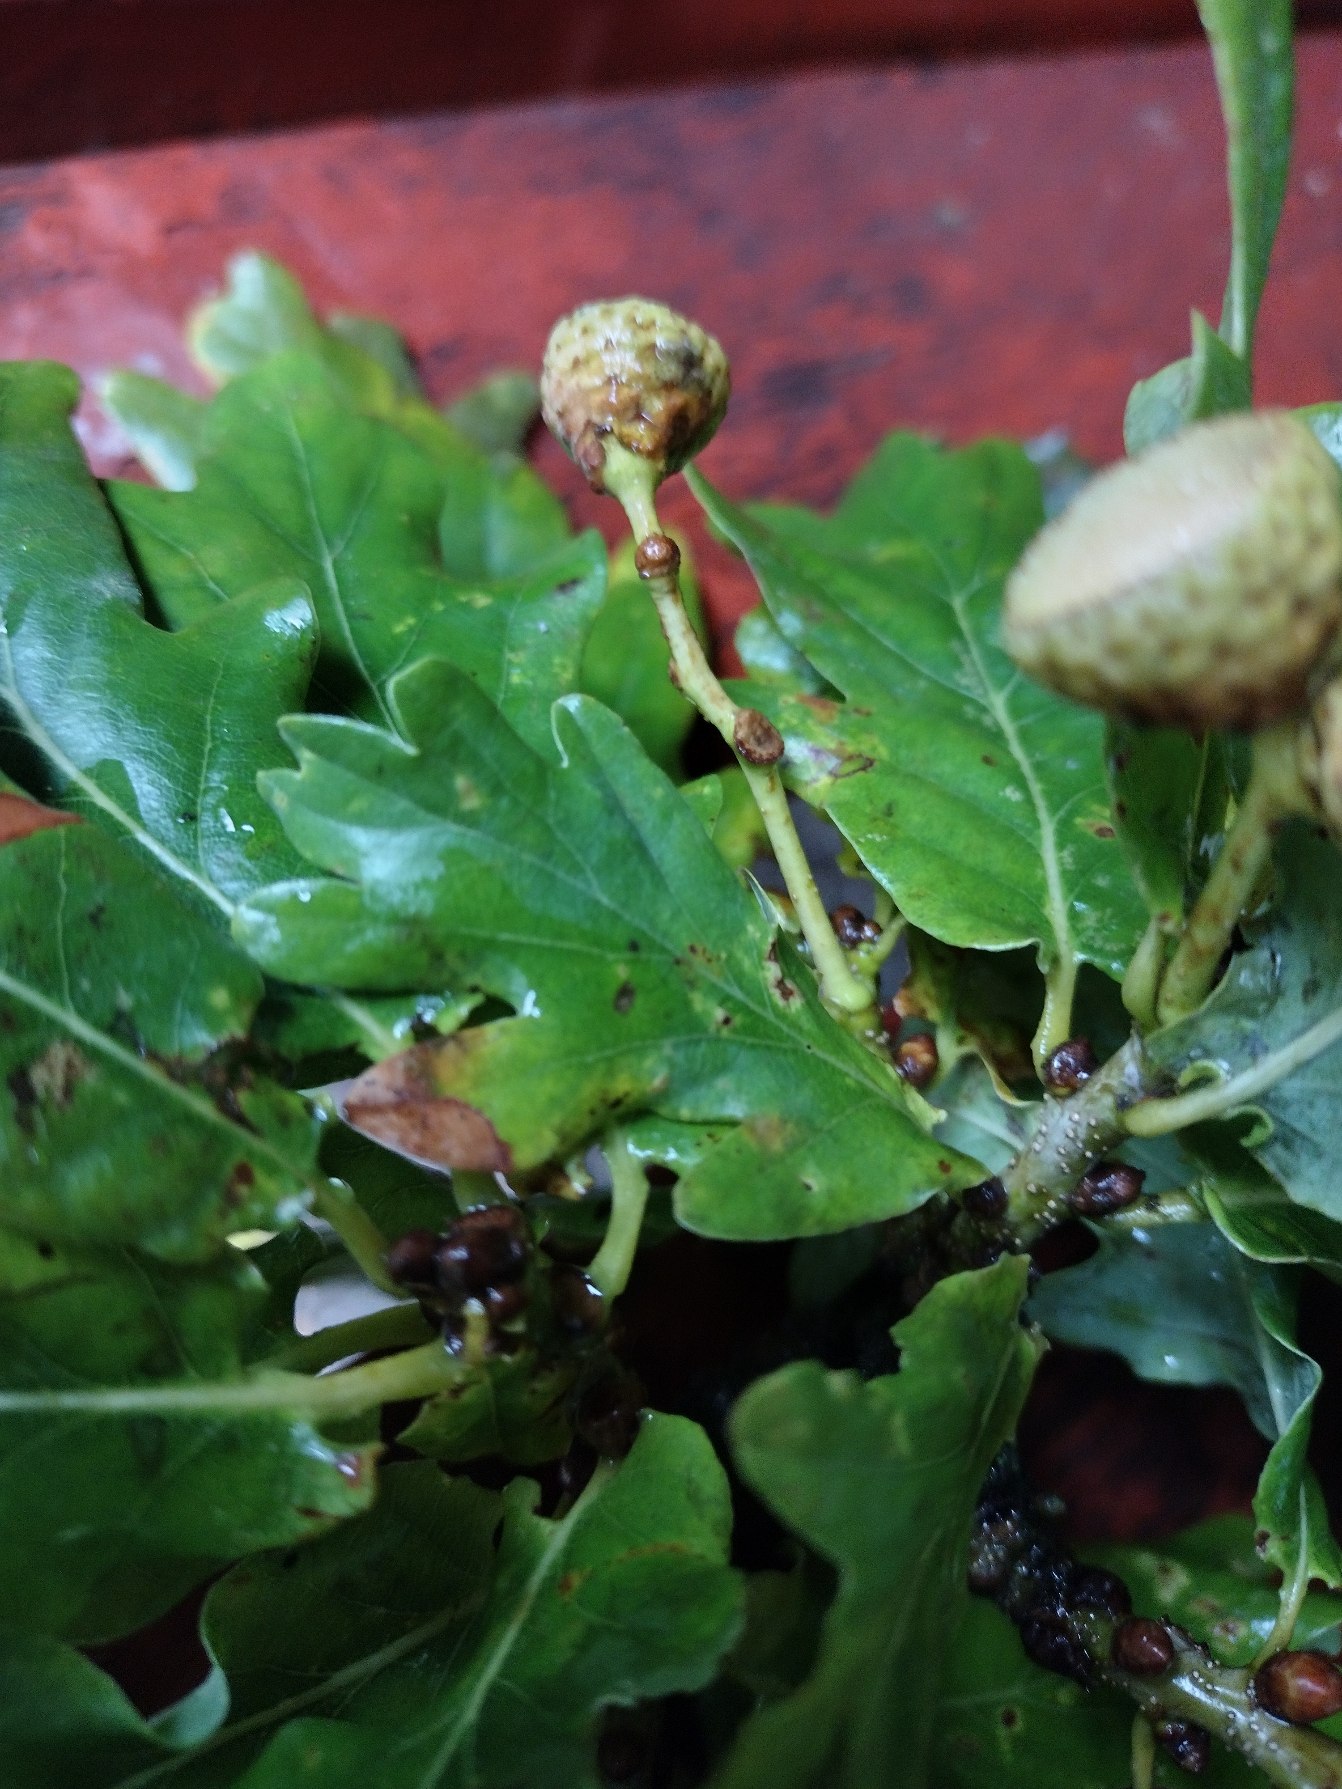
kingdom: Plantae
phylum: Tracheophyta
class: Magnoliopsida
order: Fagales
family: Fagaceae
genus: Quercus
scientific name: Quercus robur
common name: Stilk-eg/almindelig eg
